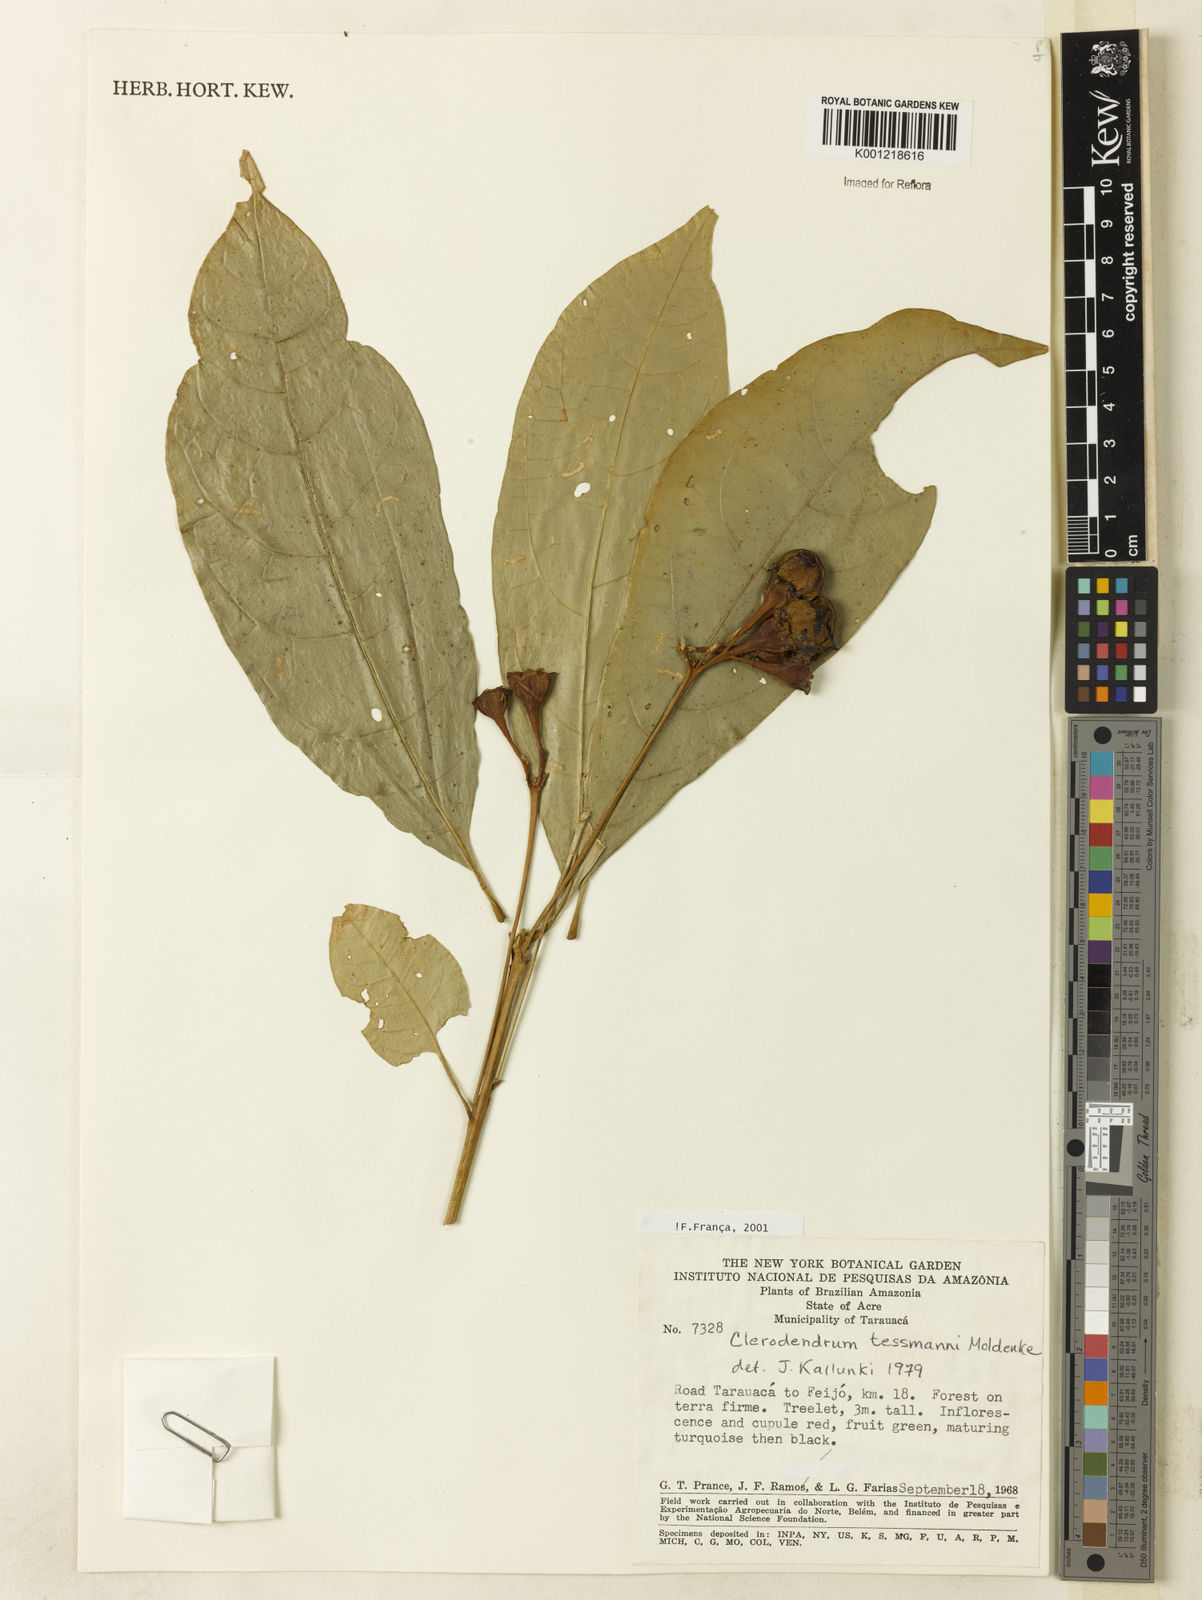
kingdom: Plantae
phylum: Tracheophyta
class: Magnoliopsida
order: Lamiales
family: Lamiaceae
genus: Aegiphila
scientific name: Aegiphila triflora
